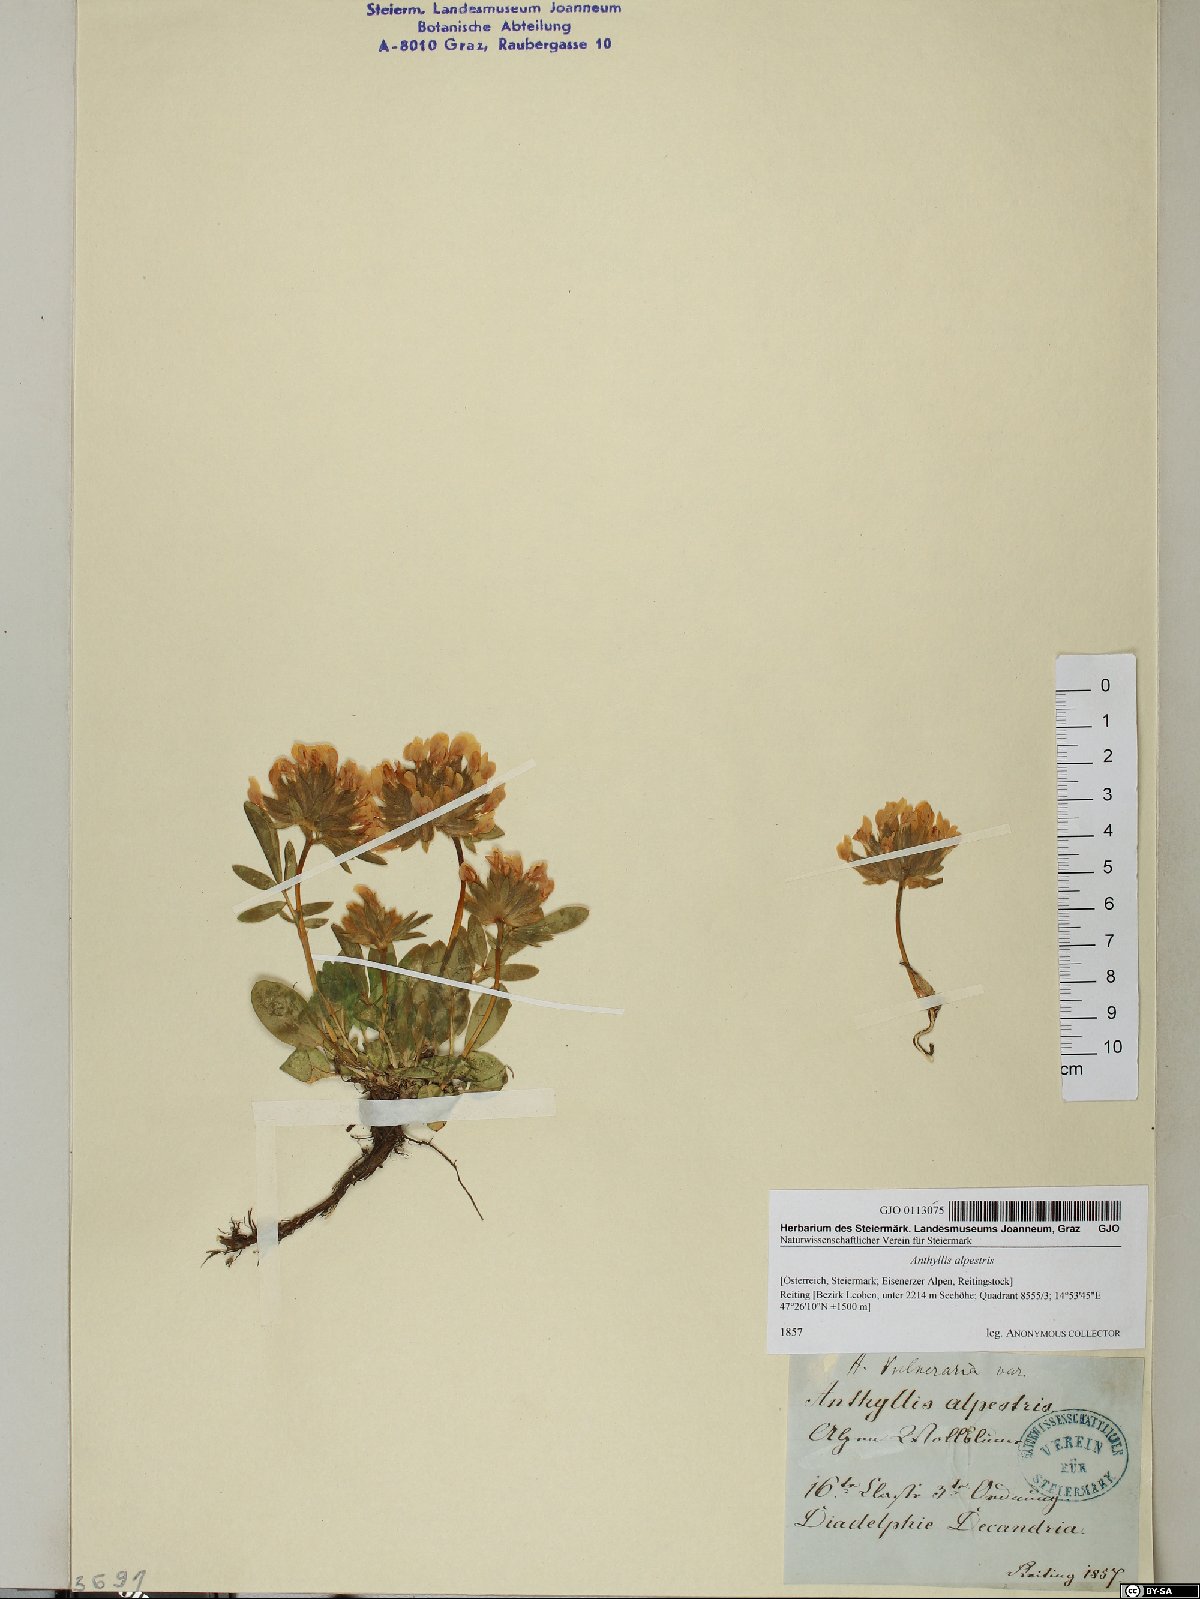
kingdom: Plantae
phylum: Tracheophyta
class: Magnoliopsida
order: Fabales
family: Fabaceae
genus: Anthyllis
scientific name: Anthyllis vulneraria
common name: Kidney vetch
